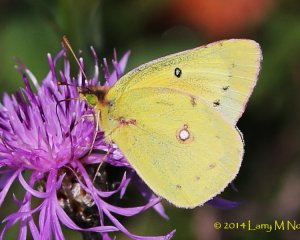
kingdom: Animalia
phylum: Arthropoda
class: Insecta
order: Lepidoptera
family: Pieridae
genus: Colias
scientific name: Colias eurytheme
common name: Orange Sulphur
